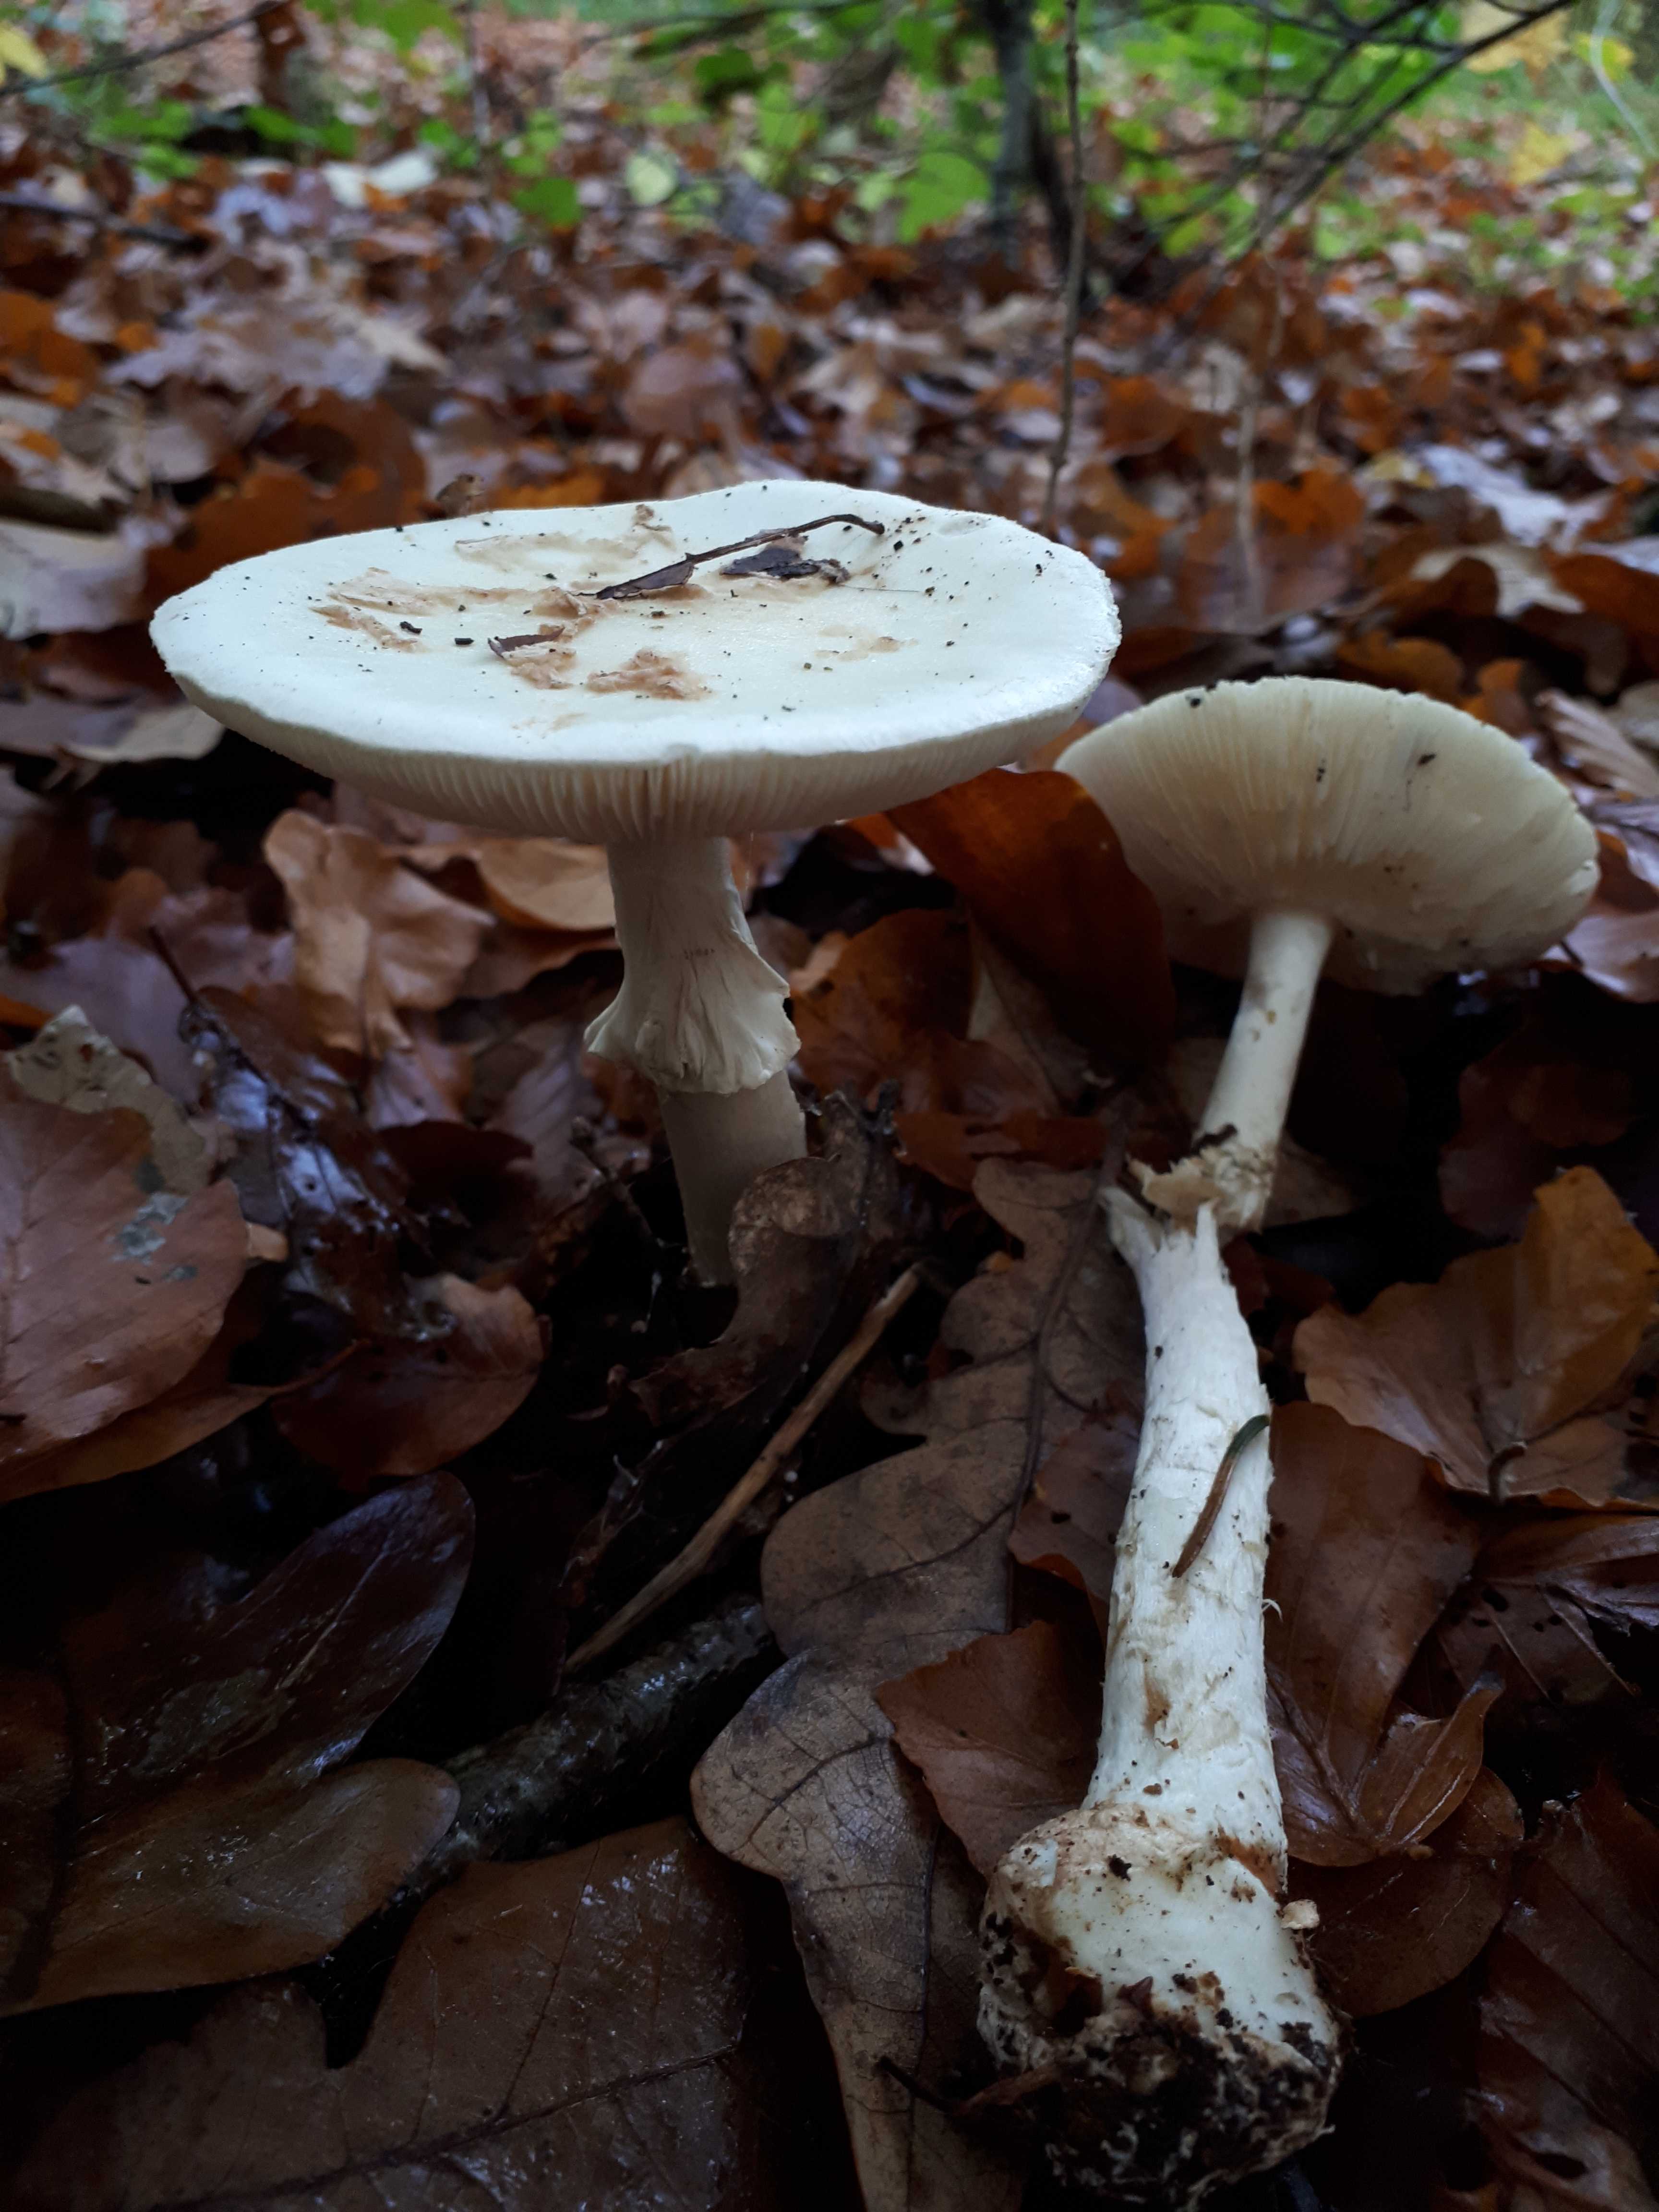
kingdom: Fungi
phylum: Basidiomycota
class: Agaricomycetes
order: Agaricales
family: Amanitaceae
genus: Amanita
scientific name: Amanita citrina
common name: kugleknoldet fluesvamp
